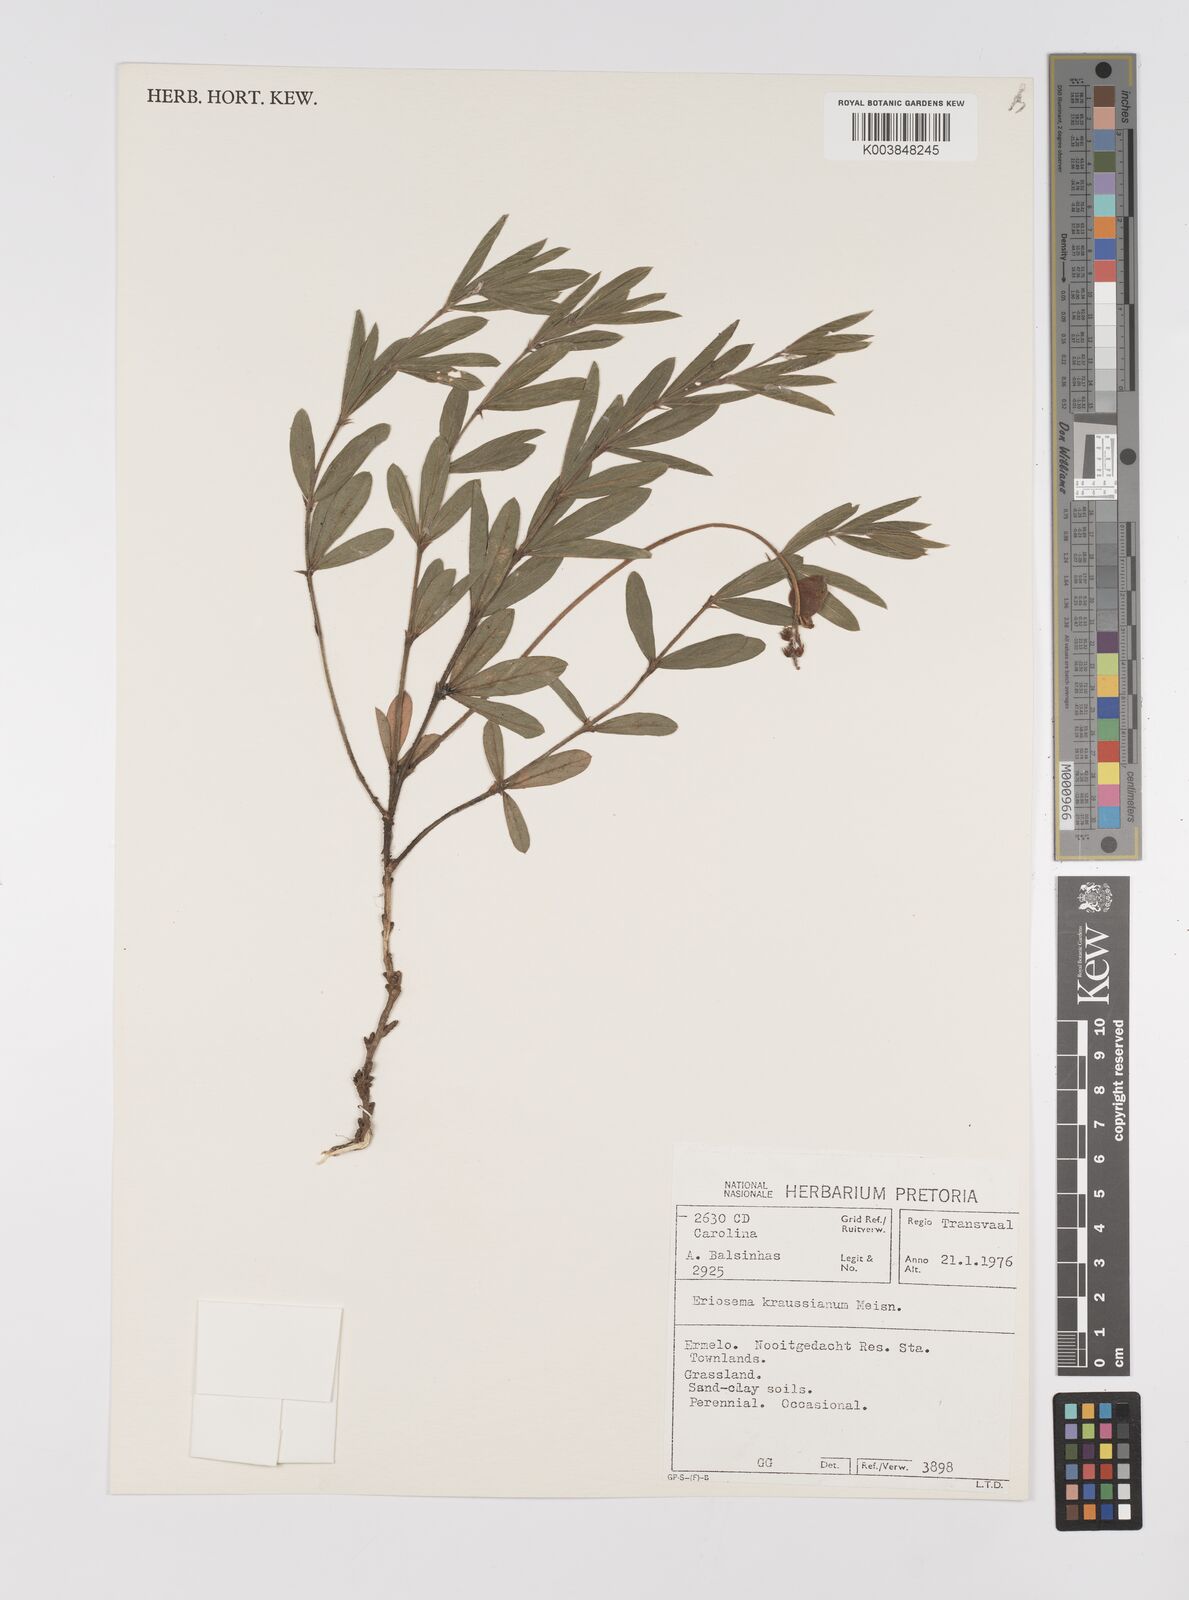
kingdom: Plantae
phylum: Tracheophyta
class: Magnoliopsida
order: Fabales
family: Fabaceae
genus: Eriosema
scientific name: Eriosema kraussianum
